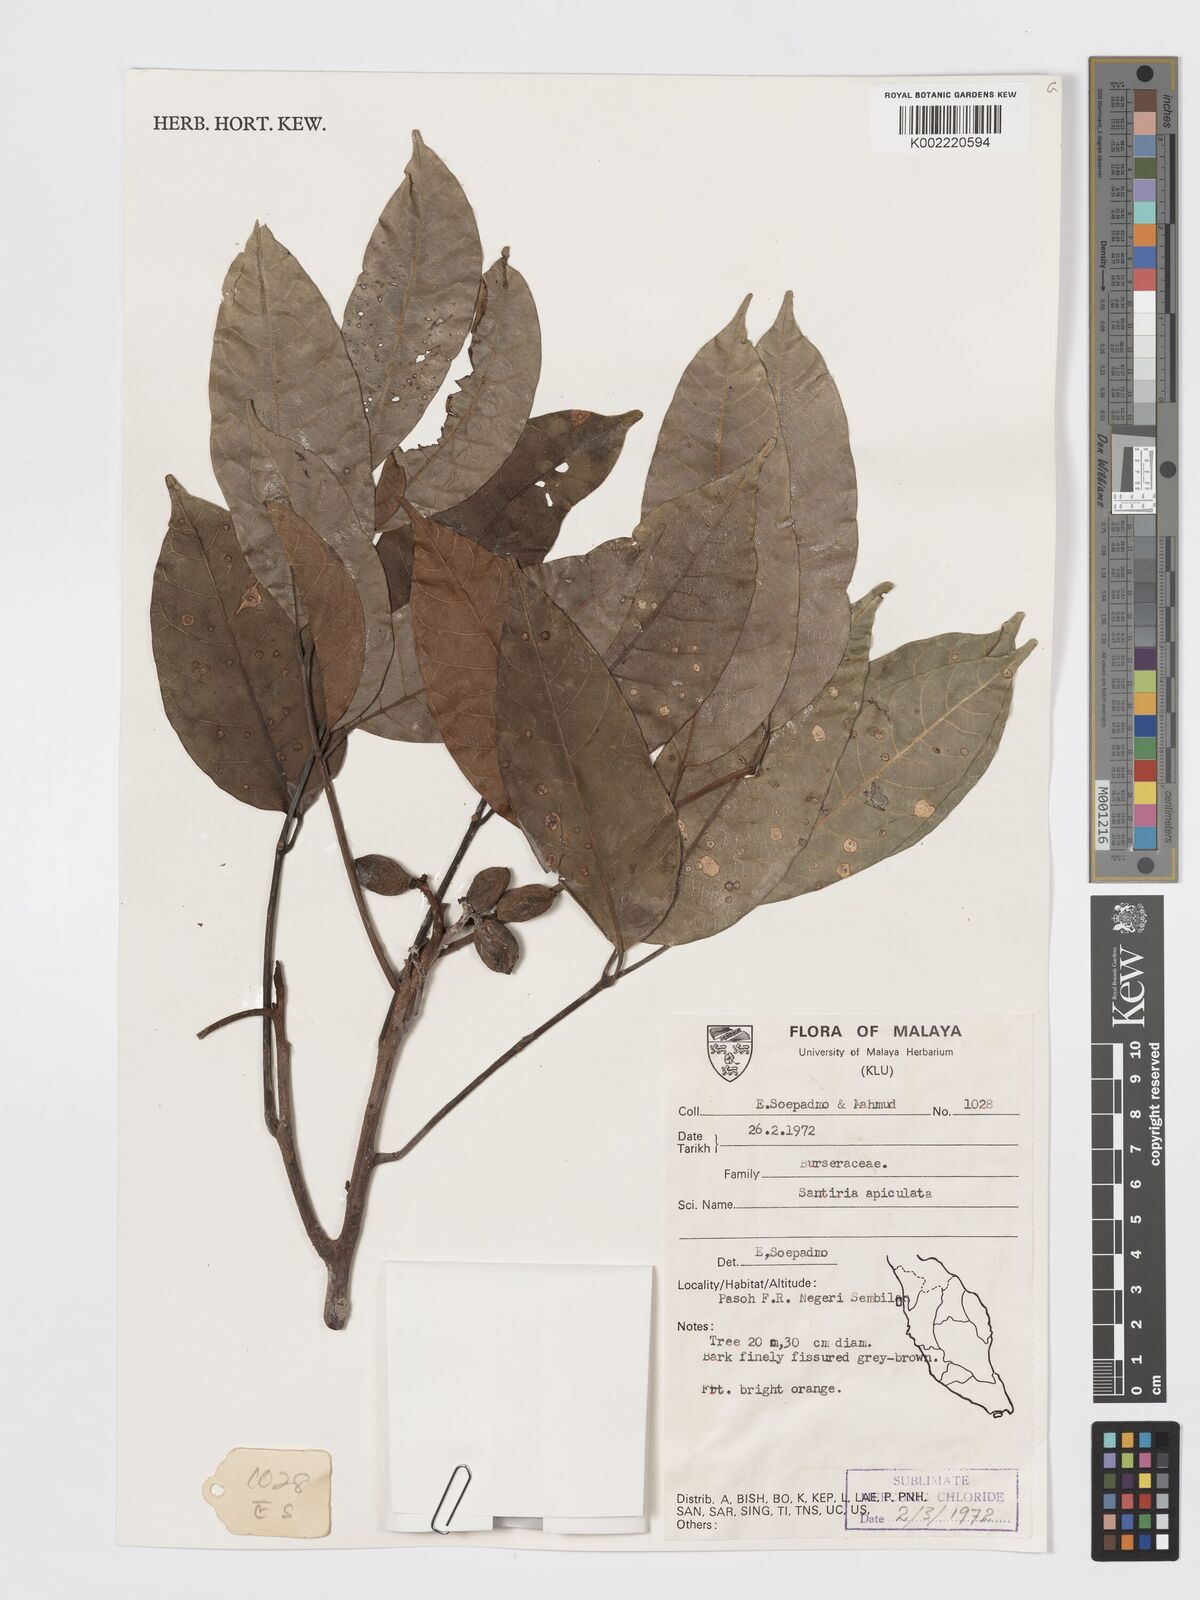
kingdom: Plantae
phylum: Tracheophyta
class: Magnoliopsida
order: Sapindales
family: Burseraceae
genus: Santiria
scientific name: Santiria apiculata
